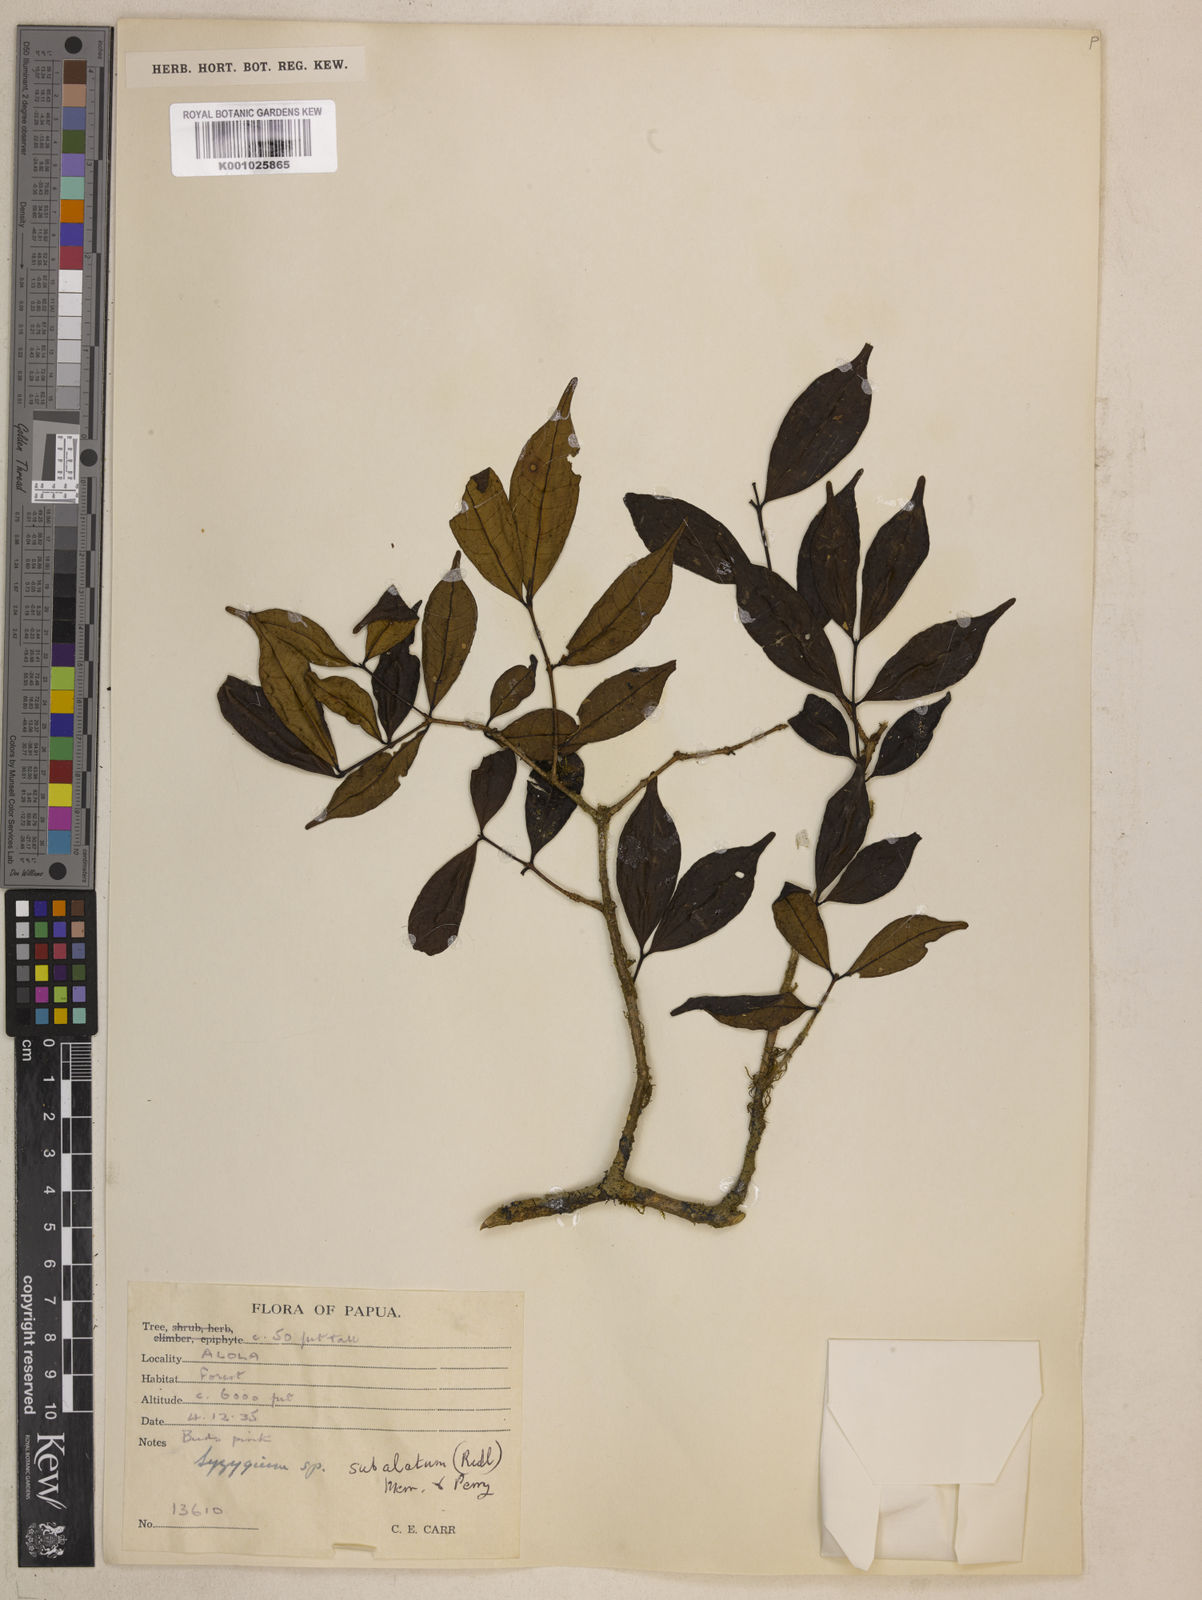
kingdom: Plantae
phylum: Tracheophyta
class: Magnoliopsida
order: Myrtales
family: Myrtaceae
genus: Syzygium
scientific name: Syzygium subalatum
